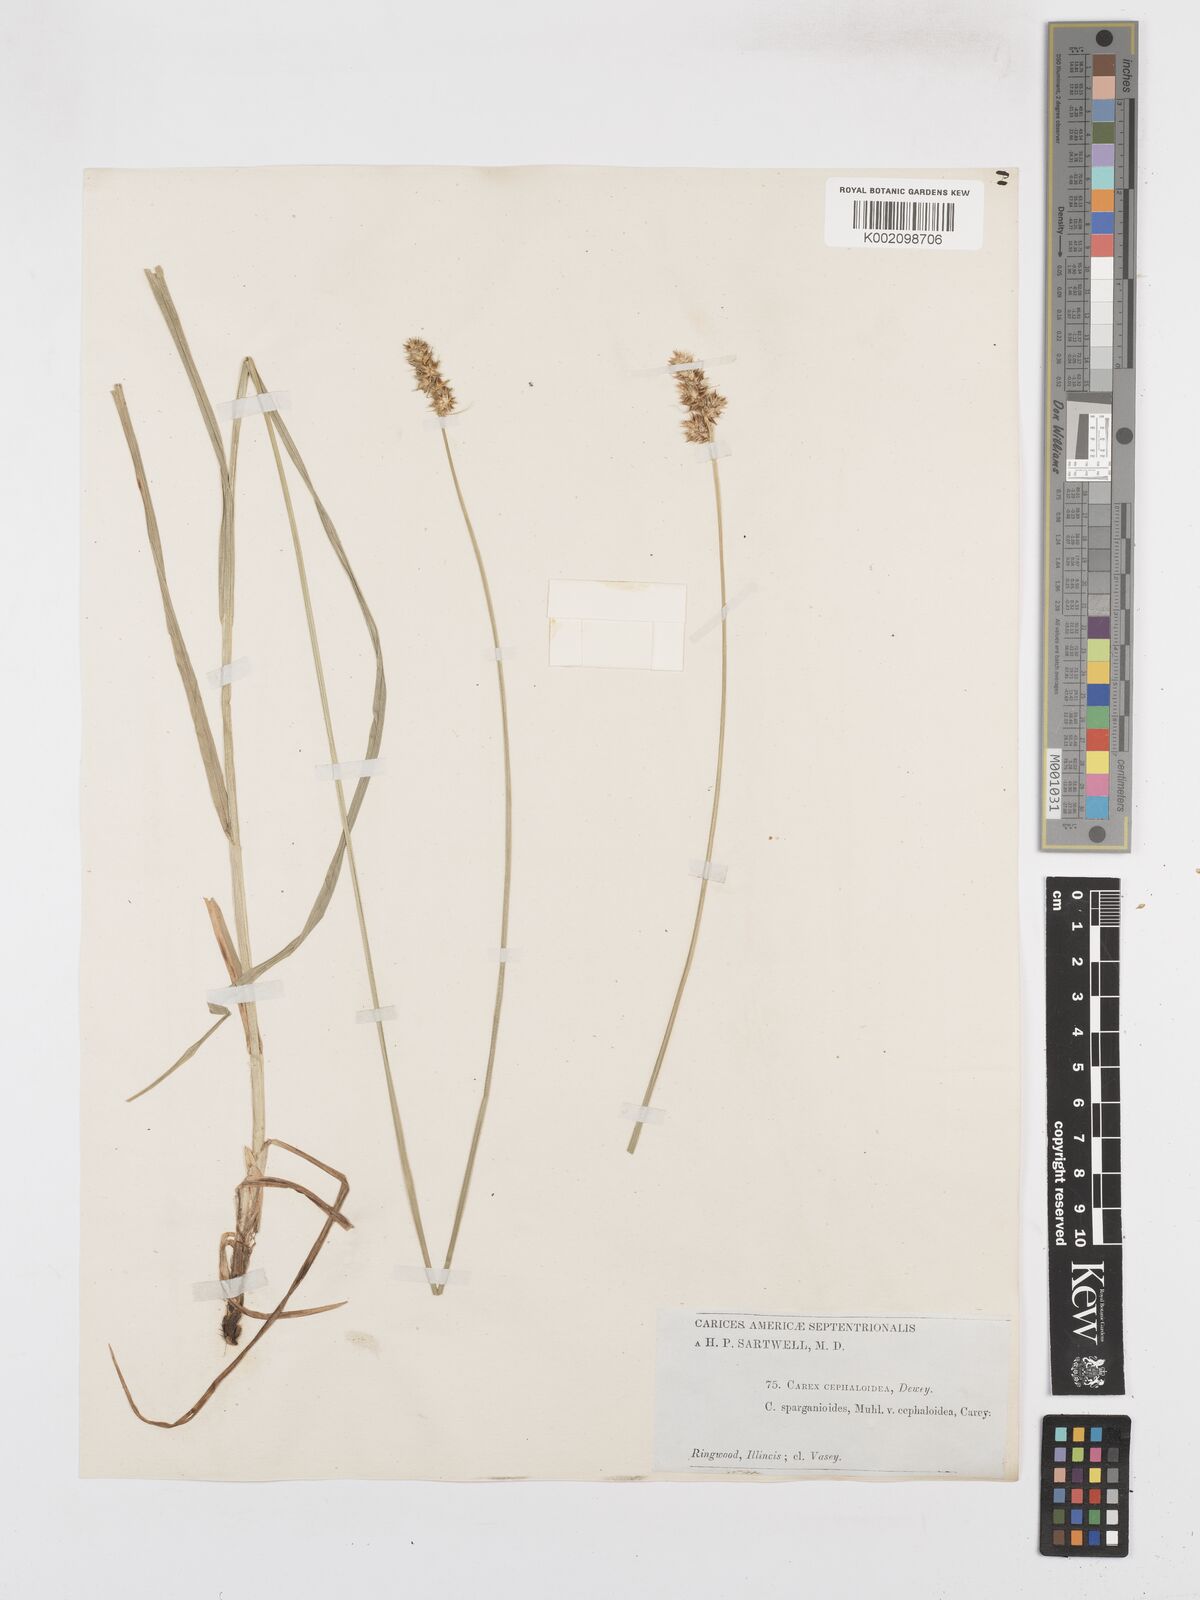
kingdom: Plantae
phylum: Tracheophyta
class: Liliopsida
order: Poales
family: Cyperaceae
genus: Carex
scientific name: Carex gravida
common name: Heavy sedge
